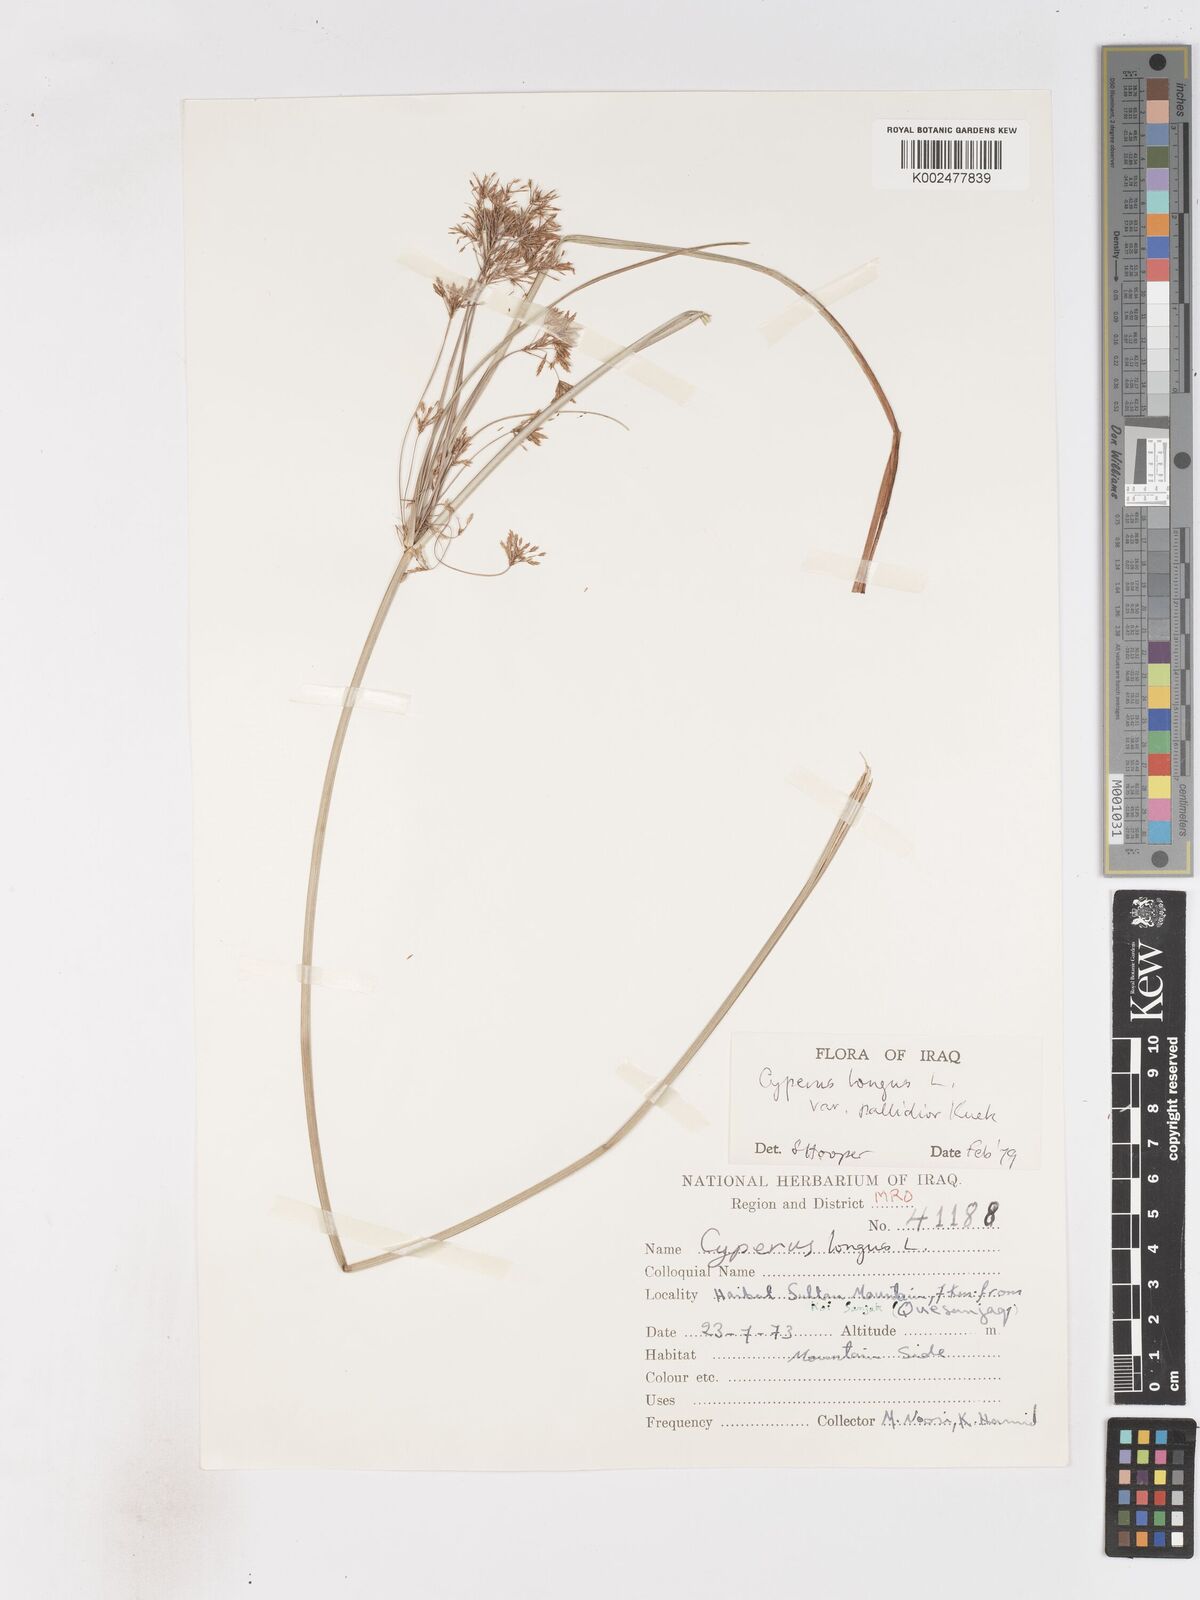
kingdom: Plantae
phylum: Tracheophyta
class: Liliopsida
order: Poales
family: Cyperaceae
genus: Cyperus
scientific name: Cyperus longus
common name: Galingale
